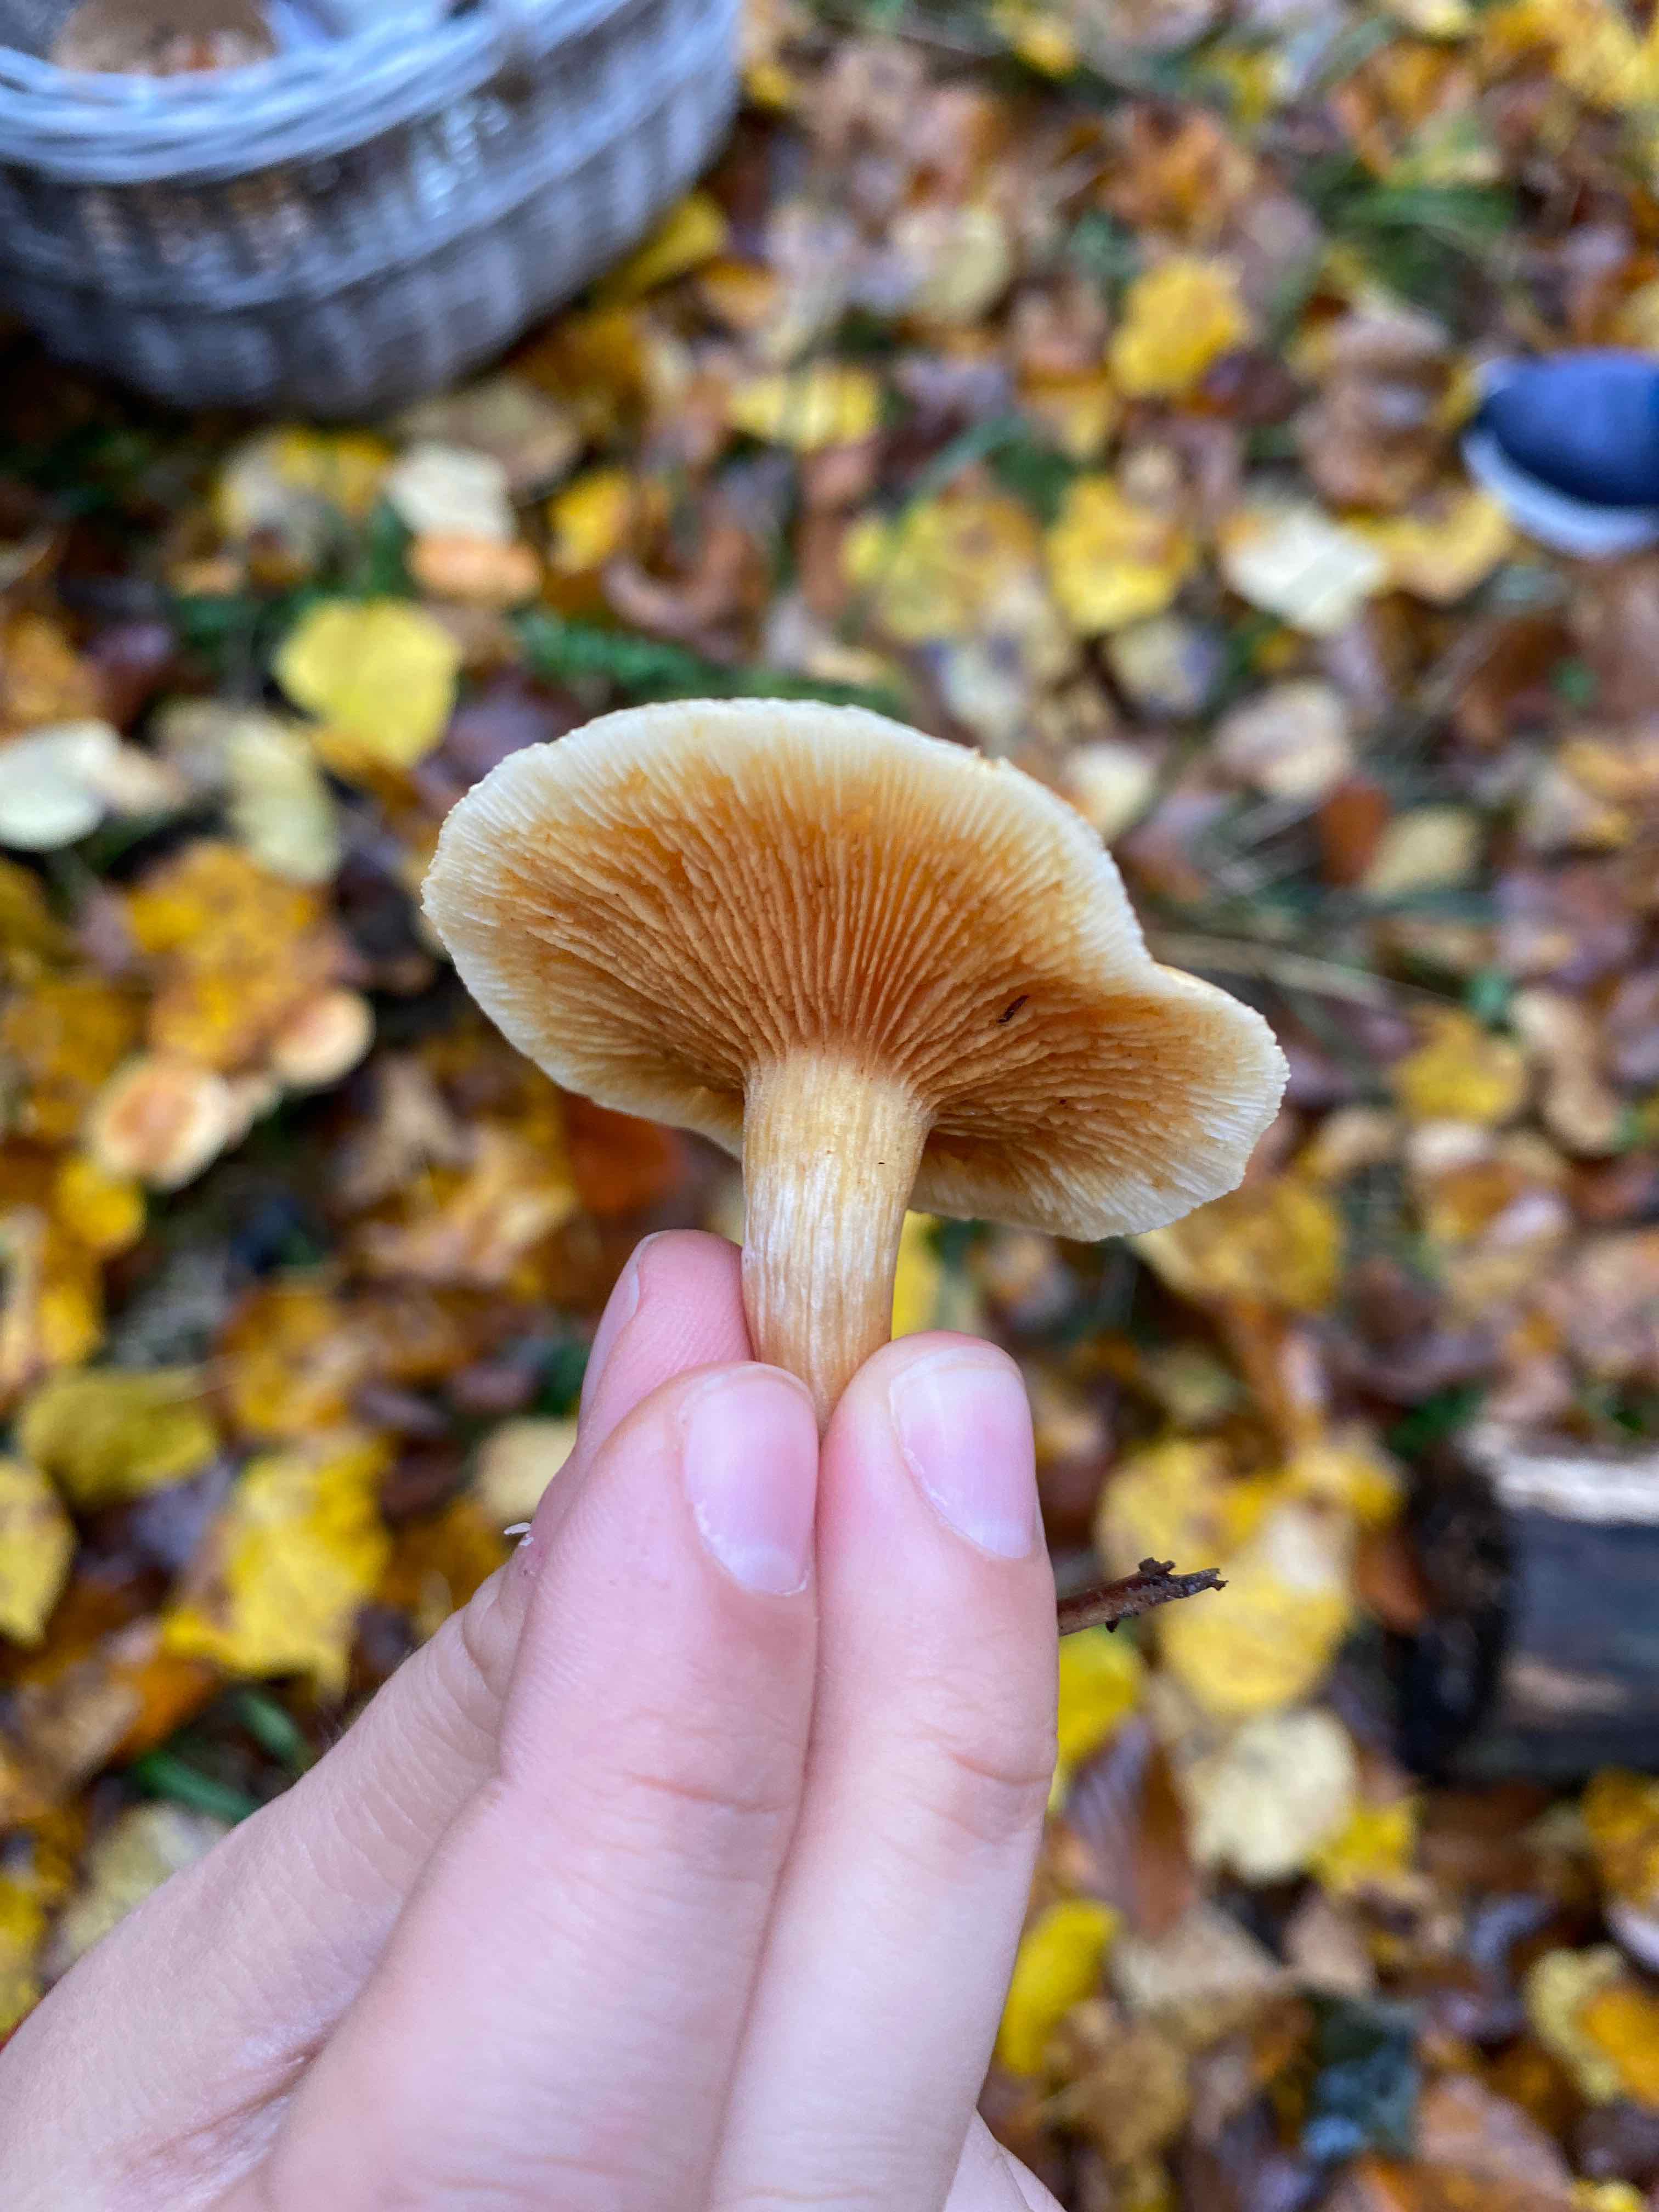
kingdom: Fungi
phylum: Basidiomycota
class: Agaricomycetes
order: Agaricales
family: Hymenogastraceae
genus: Gymnopilus
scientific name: Gymnopilus penetrans
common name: plettet flammehat
